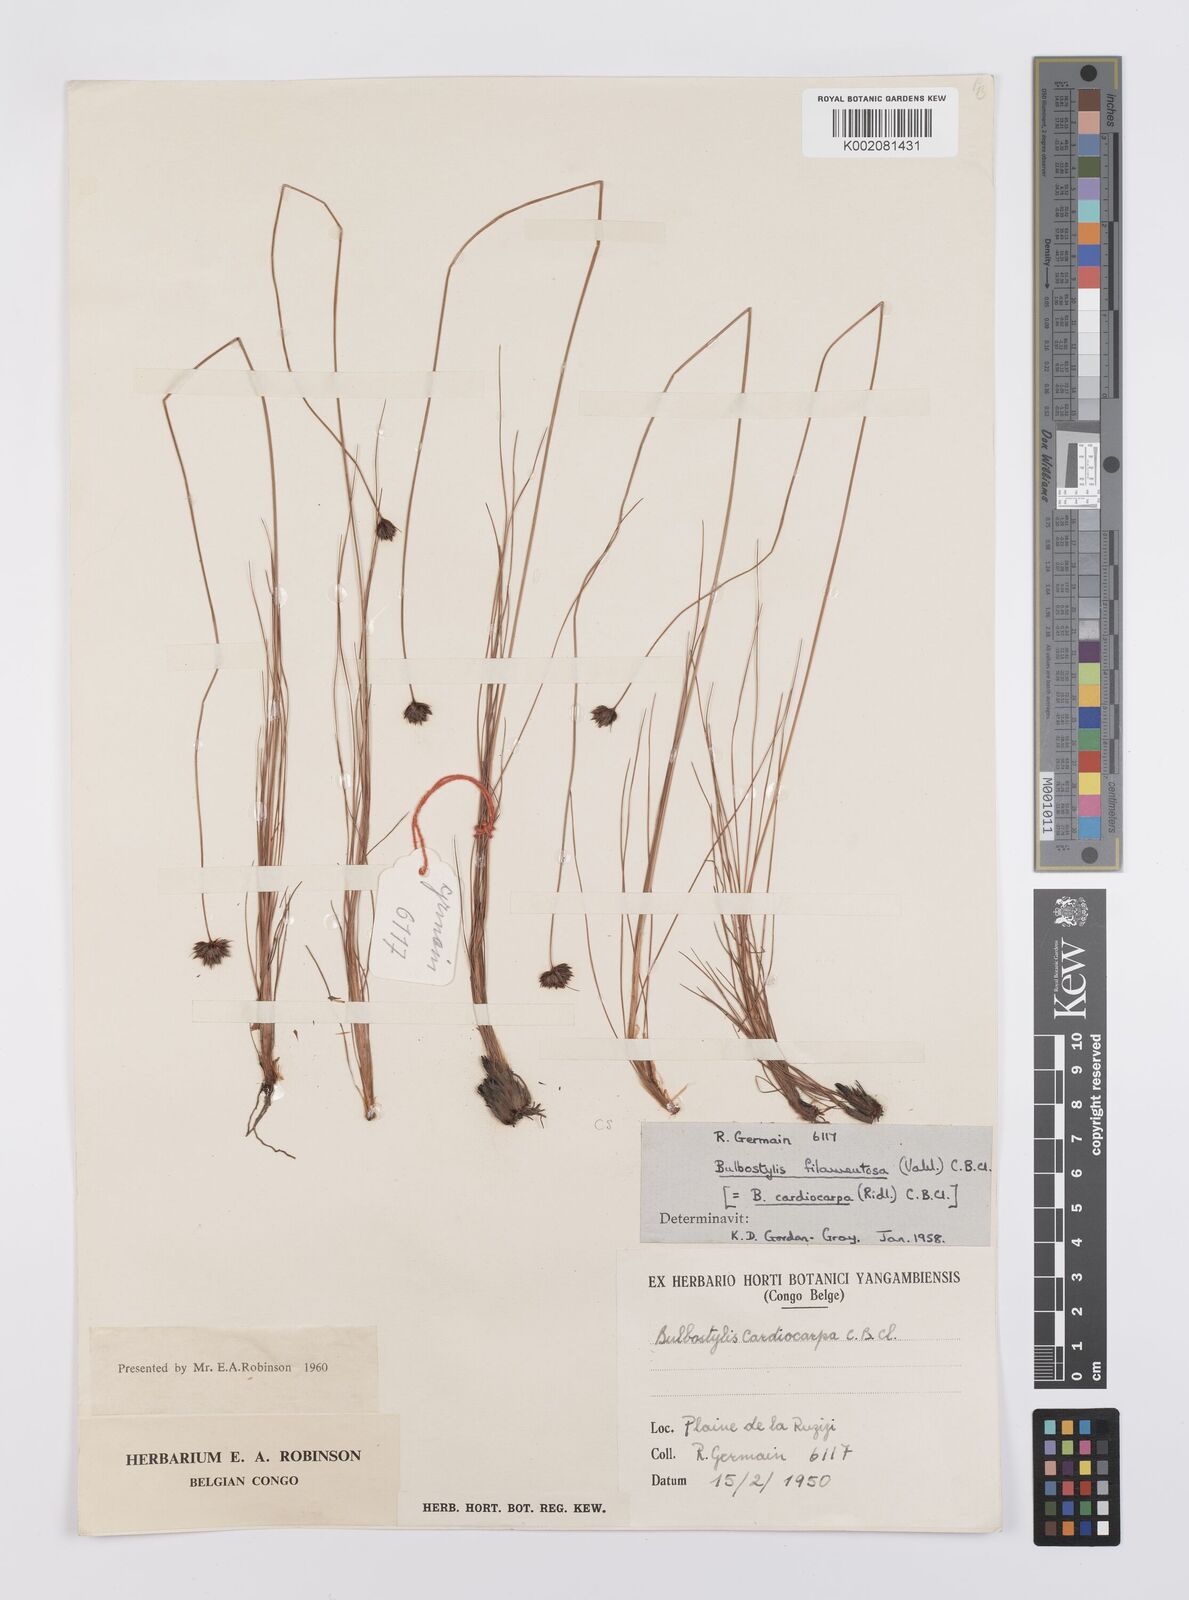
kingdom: Plantae
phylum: Tracheophyta
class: Liliopsida
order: Poales
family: Cyperaceae
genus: Bulbostylis
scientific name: Bulbostylis filamentosa
